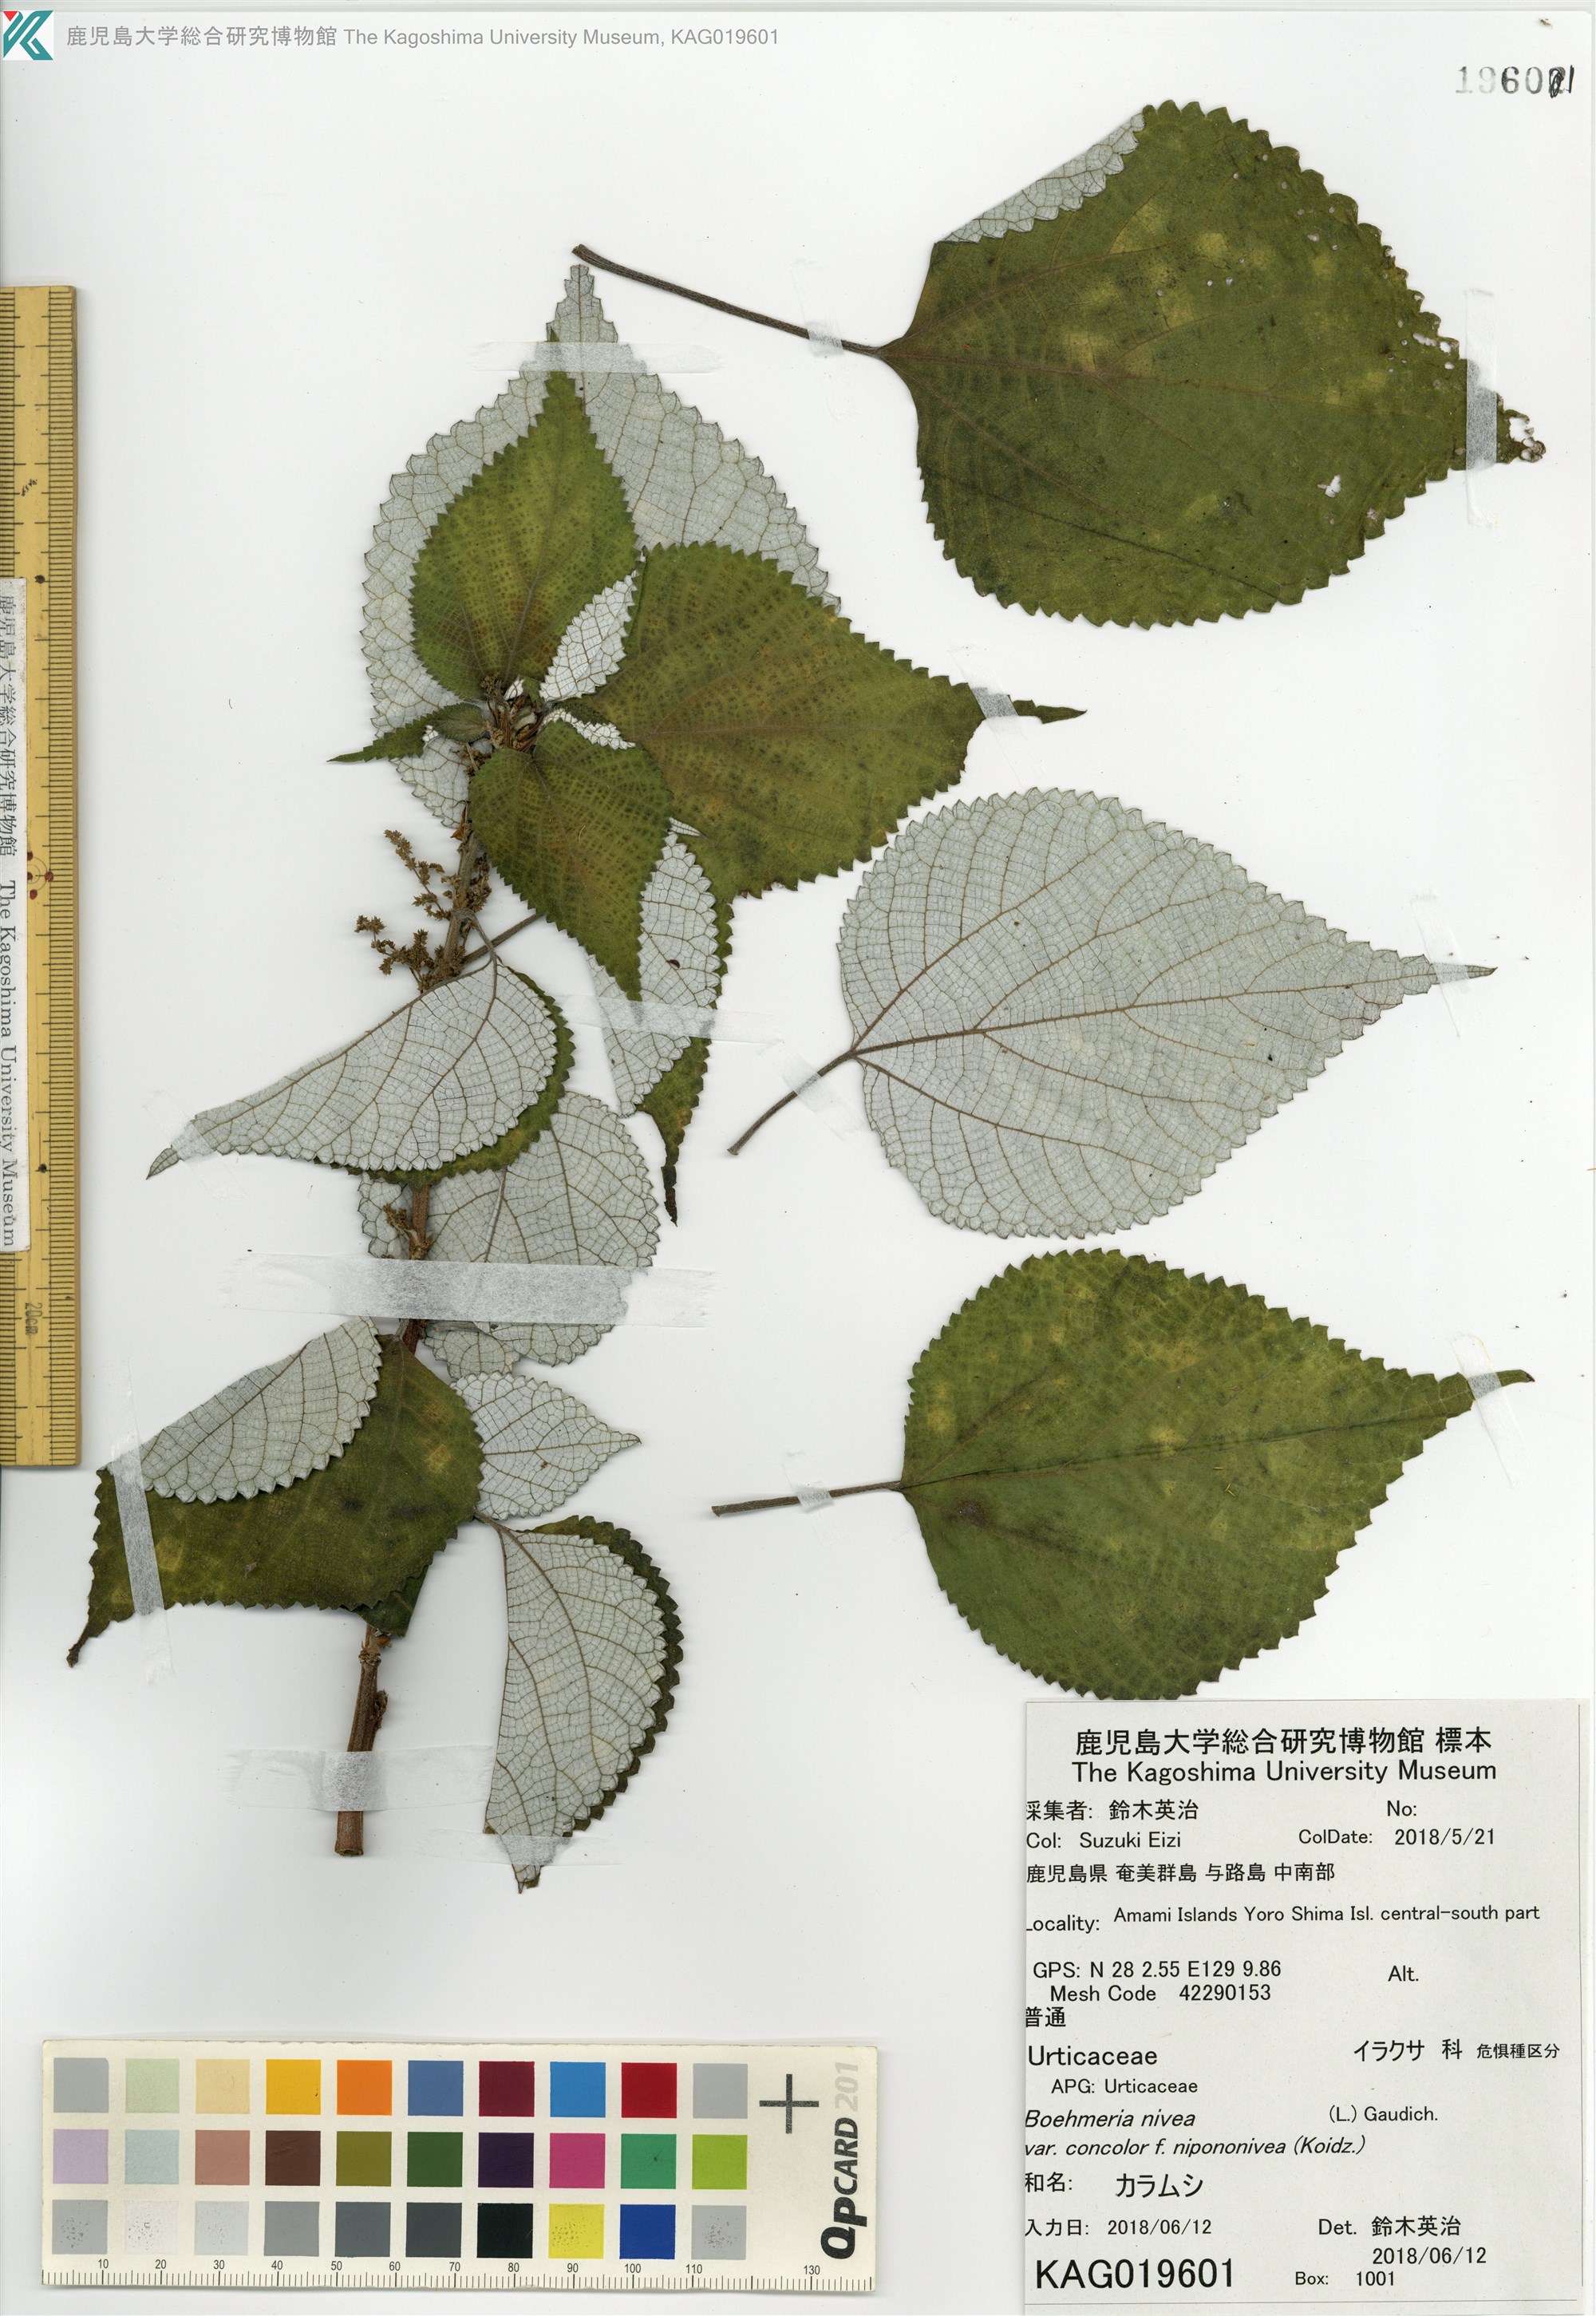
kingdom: Plantae
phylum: Tracheophyta
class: Magnoliopsida
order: Rosales
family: Urticaceae
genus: Boehmeria
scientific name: Boehmeria nivea
